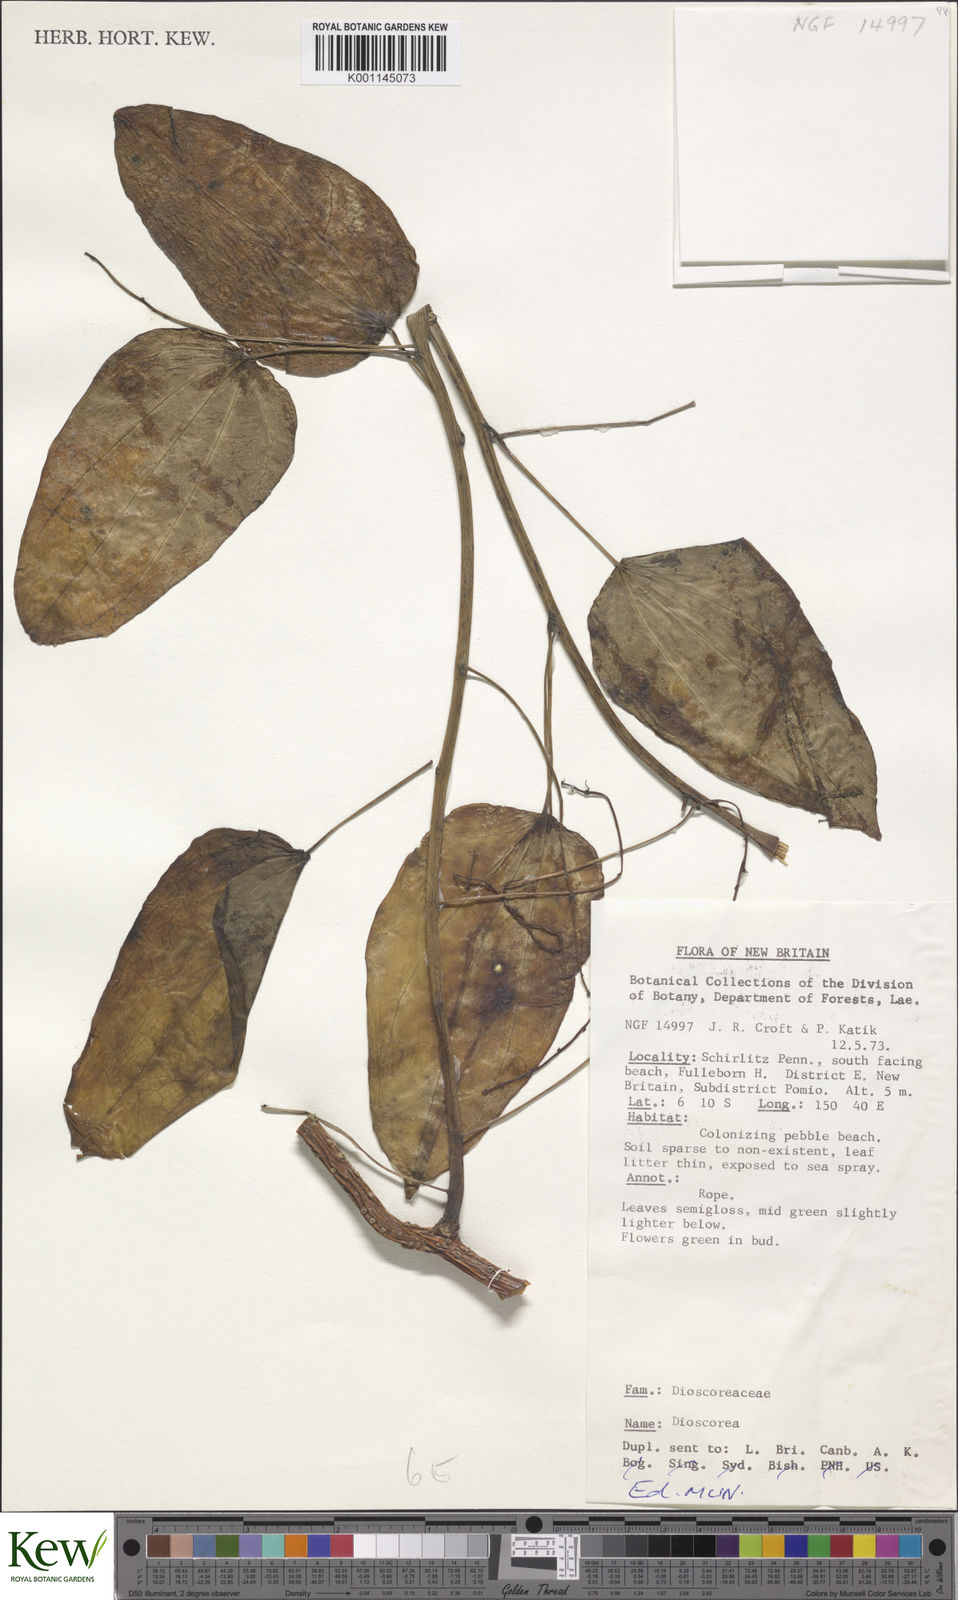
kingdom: Plantae
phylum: Tracheophyta
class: Liliopsida
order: Dioscoreales
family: Dioscoreaceae
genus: Dioscorea
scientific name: Dioscorea
